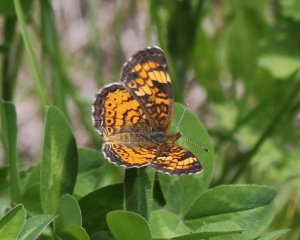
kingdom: Animalia
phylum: Arthropoda
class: Insecta
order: Lepidoptera
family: Nymphalidae
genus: Phyciodes
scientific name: Phyciodes tharos
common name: Northern Crescent
